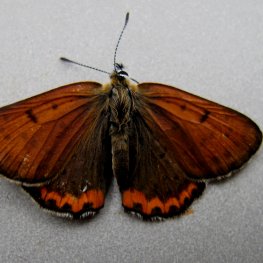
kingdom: Animalia
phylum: Arthropoda
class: Insecta
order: Lepidoptera
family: Sesiidae
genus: Sesia
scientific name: Sesia Lycaena hyllus
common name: Bronze Copper
